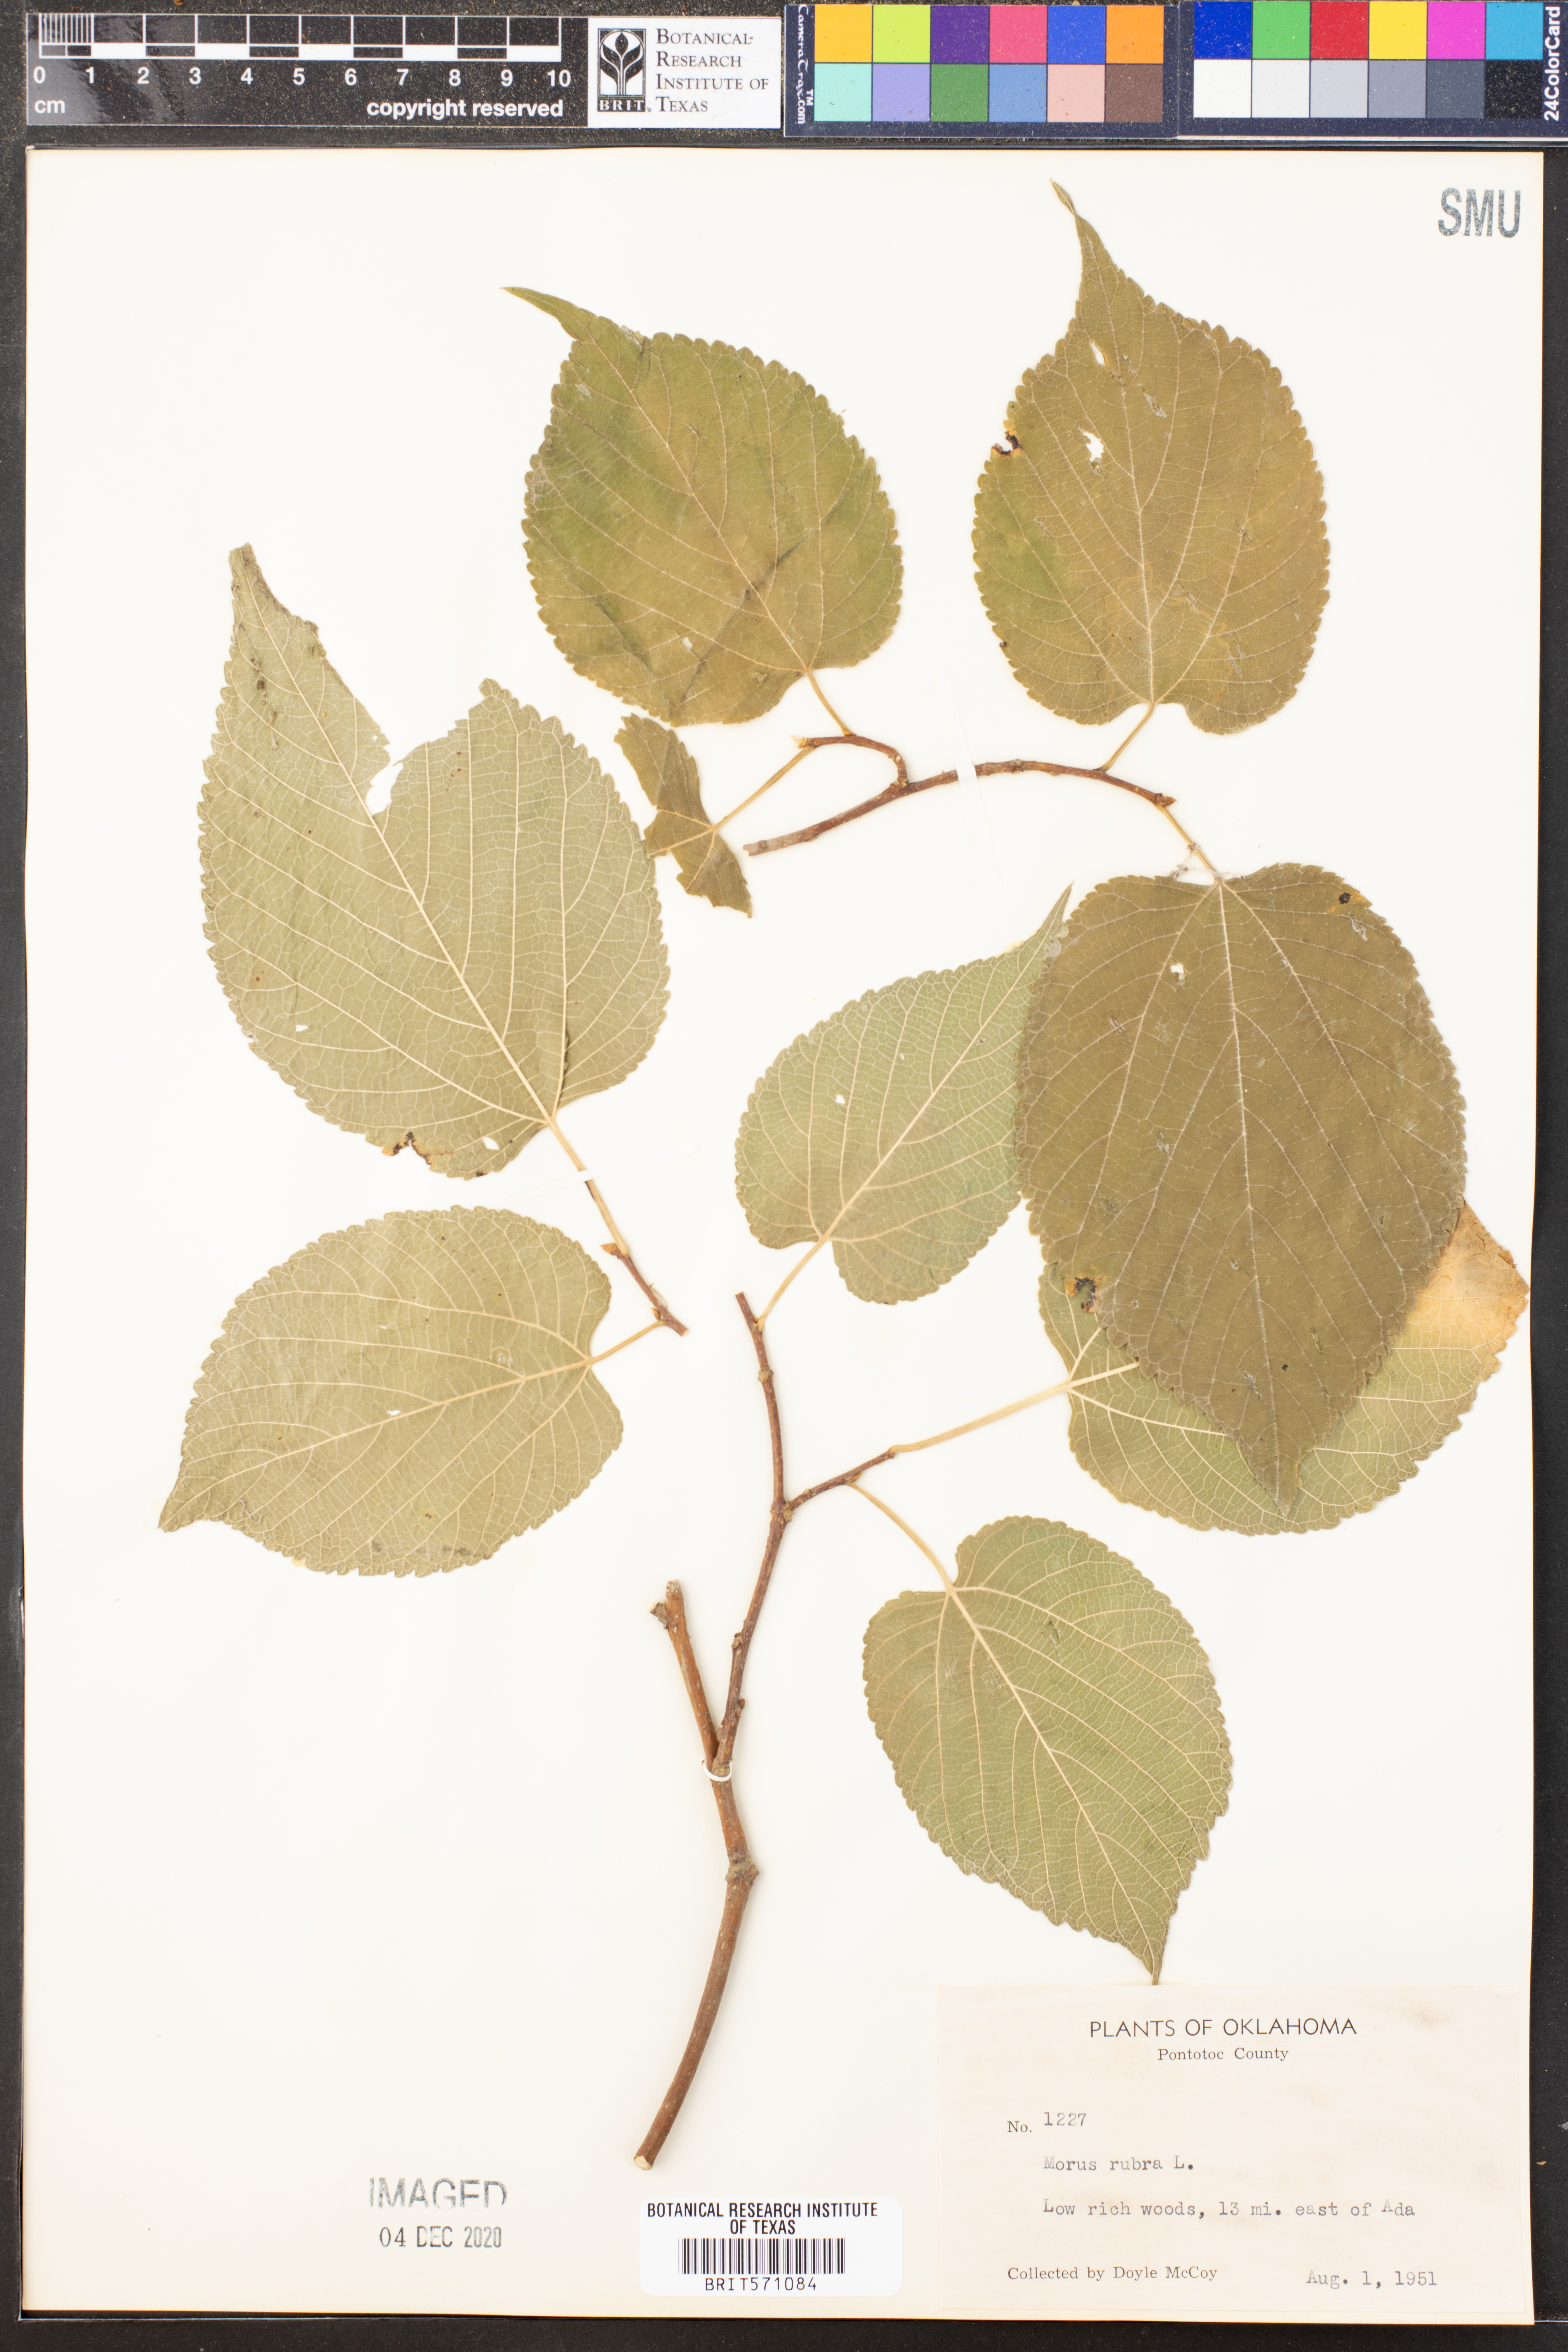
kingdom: Plantae
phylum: Tracheophyta
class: Magnoliopsida
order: Rosales
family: Moraceae
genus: Morus
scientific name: Morus rubra
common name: Red mulberry
